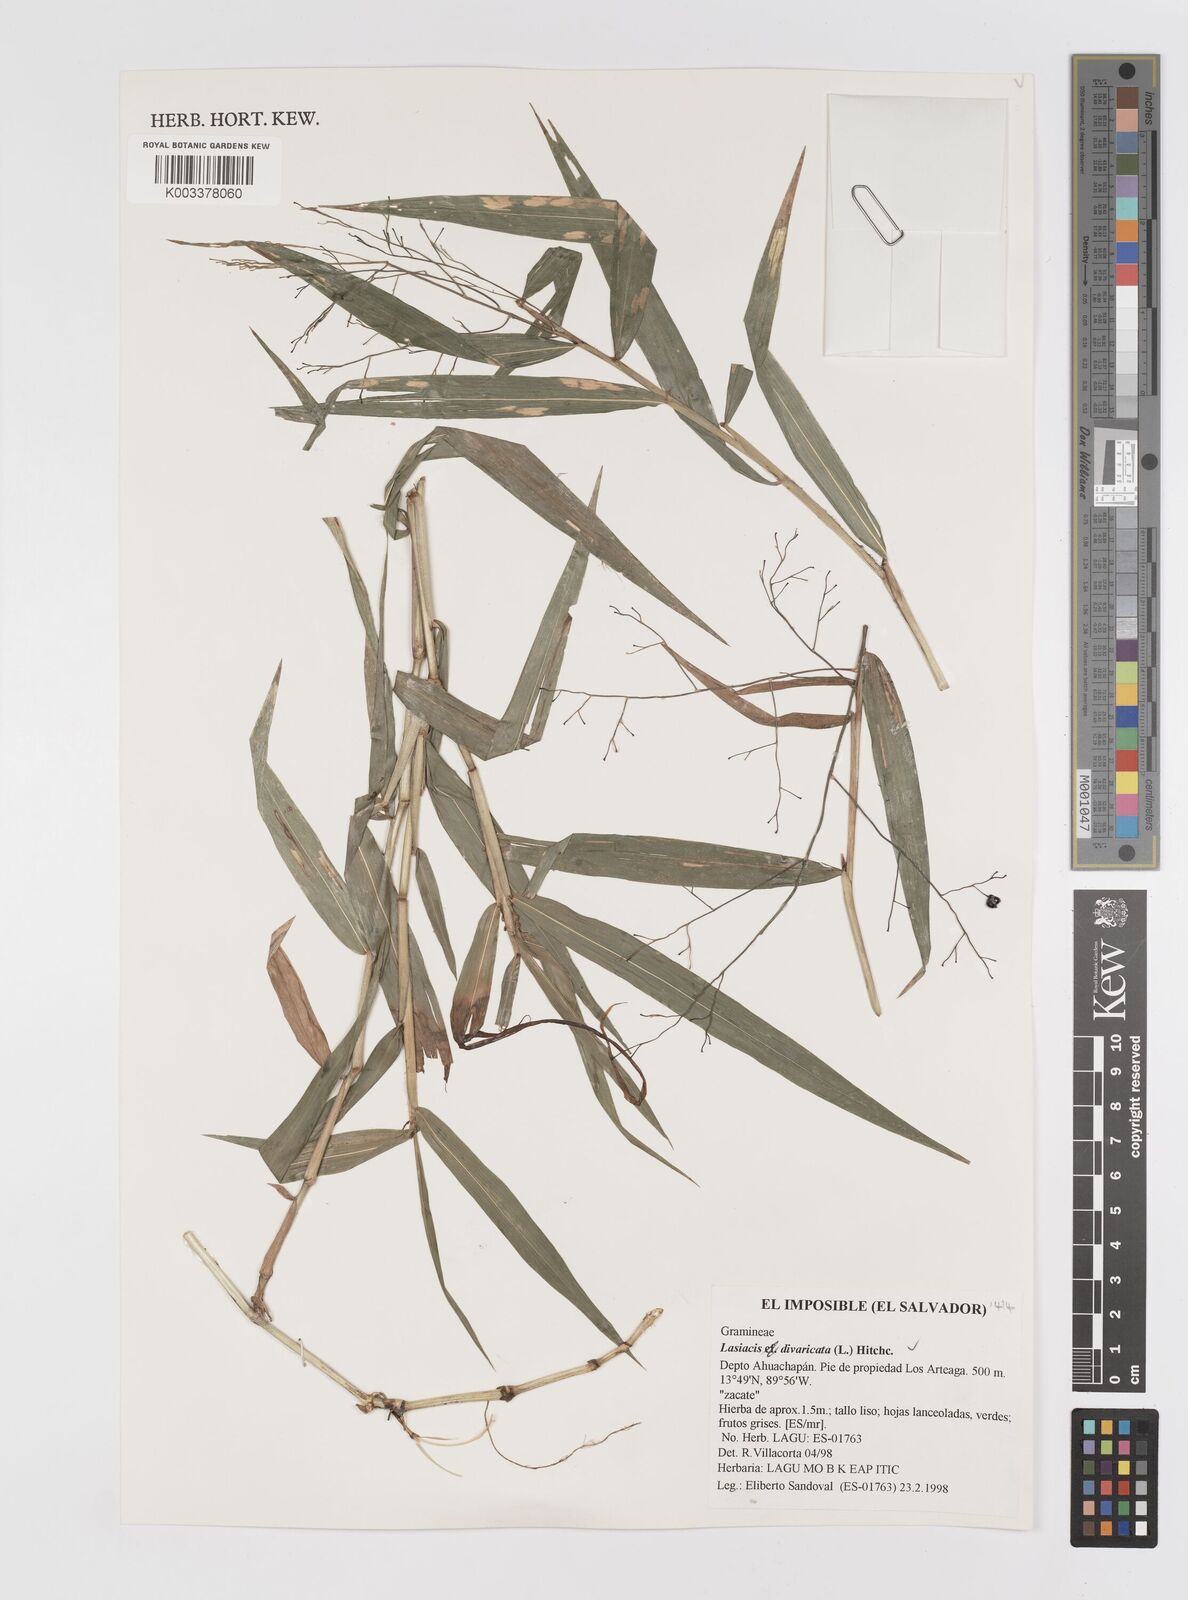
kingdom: Plantae
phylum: Tracheophyta
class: Liliopsida
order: Poales
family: Poaceae
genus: Lasiacis
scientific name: Lasiacis divaricata
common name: Smallcane
